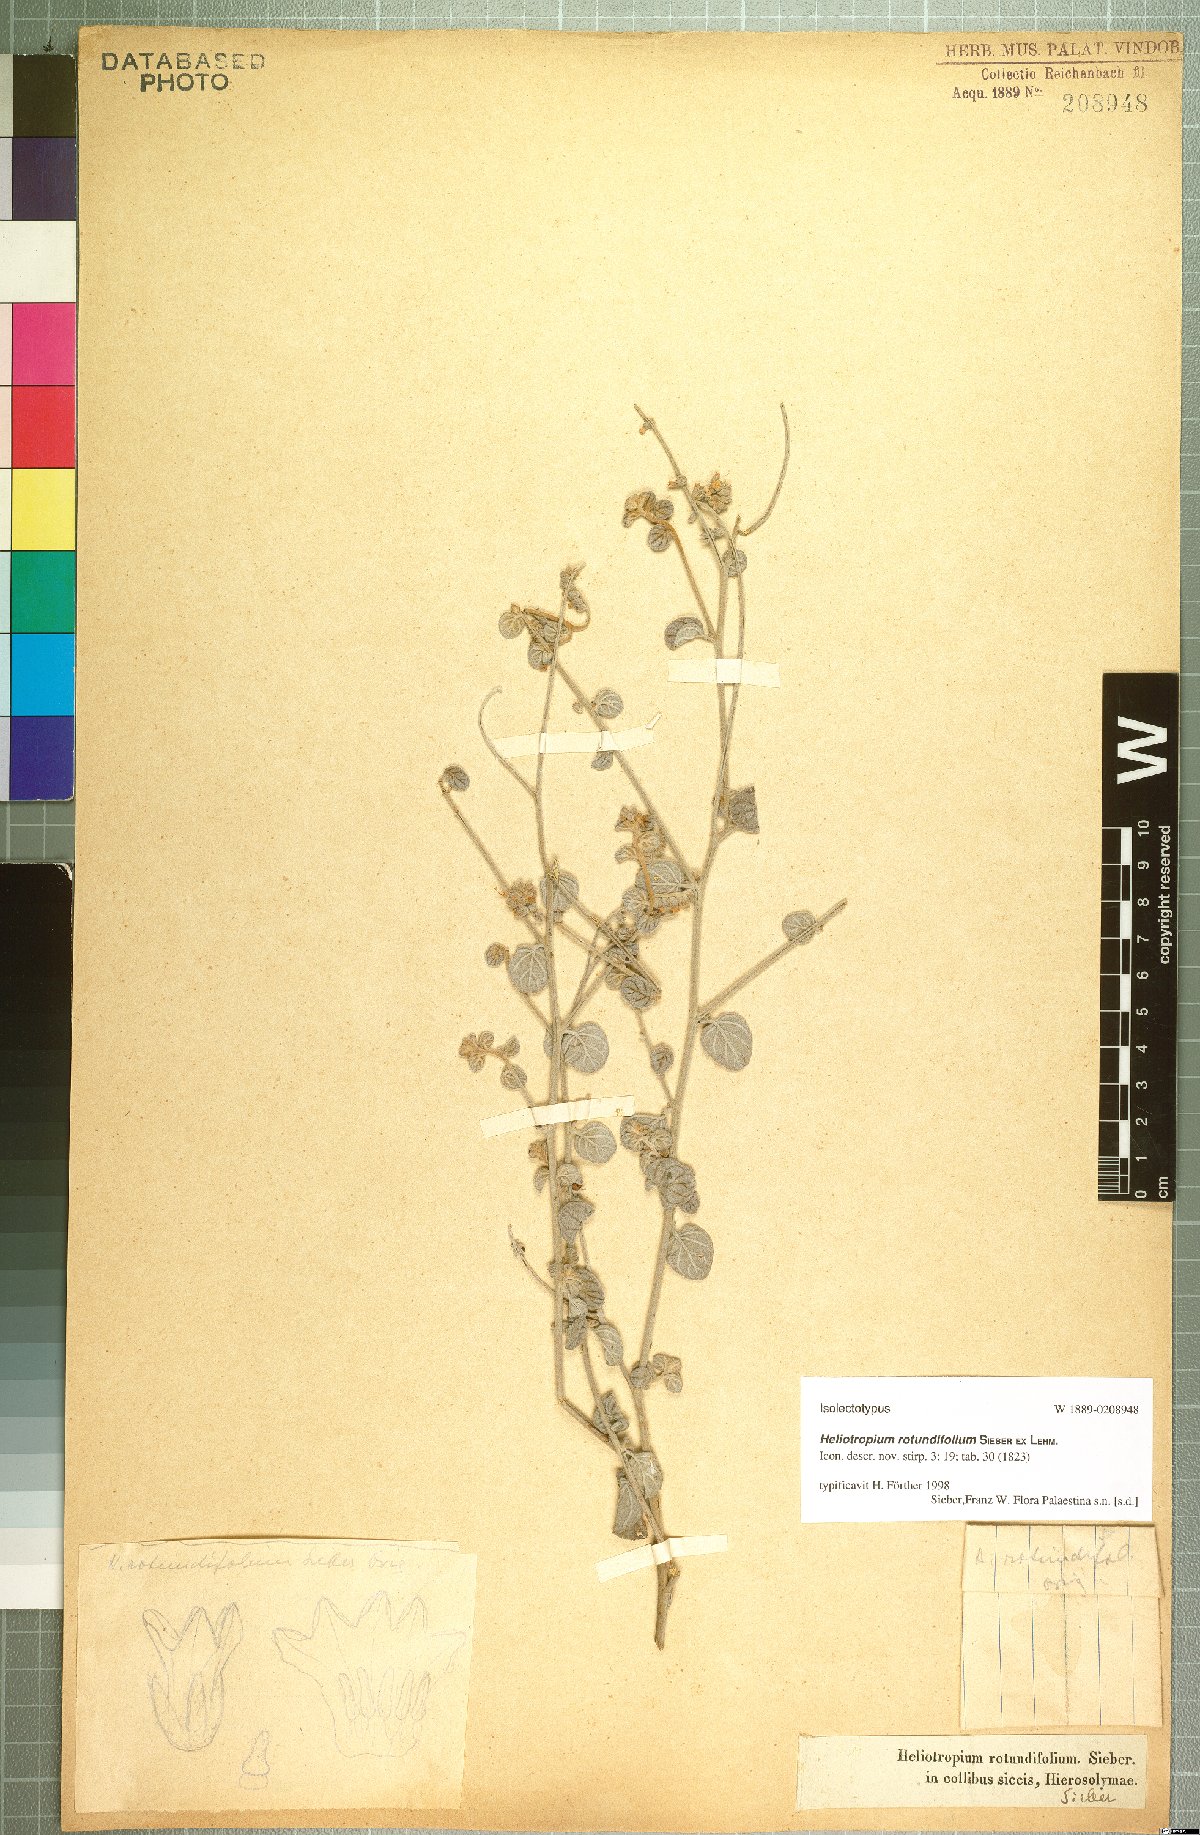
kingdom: Plantae
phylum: Tracheophyta
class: Magnoliopsida
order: Boraginales
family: Heliotropiaceae
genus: Heliotropium
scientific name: Heliotropium rotundifolium
